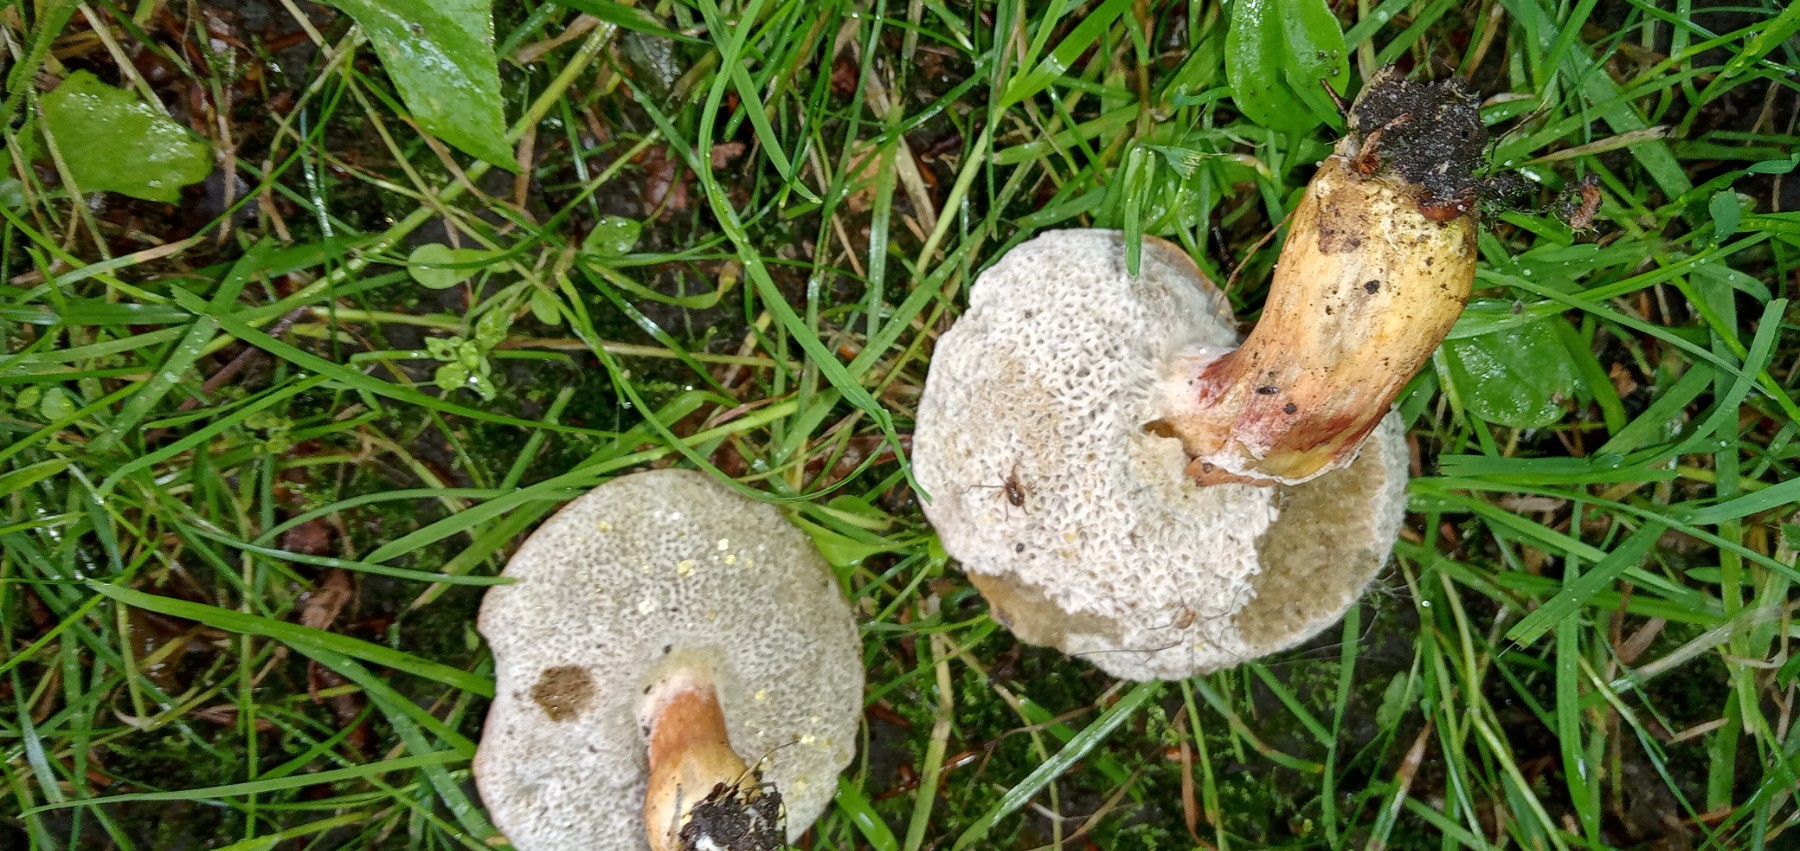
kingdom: Fungi
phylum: Ascomycota
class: Sordariomycetes
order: Hypocreales
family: Hypocreaceae
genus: Hypomyces
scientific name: Hypomyces microspermus
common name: dværgrørhat-snylteskorpe
